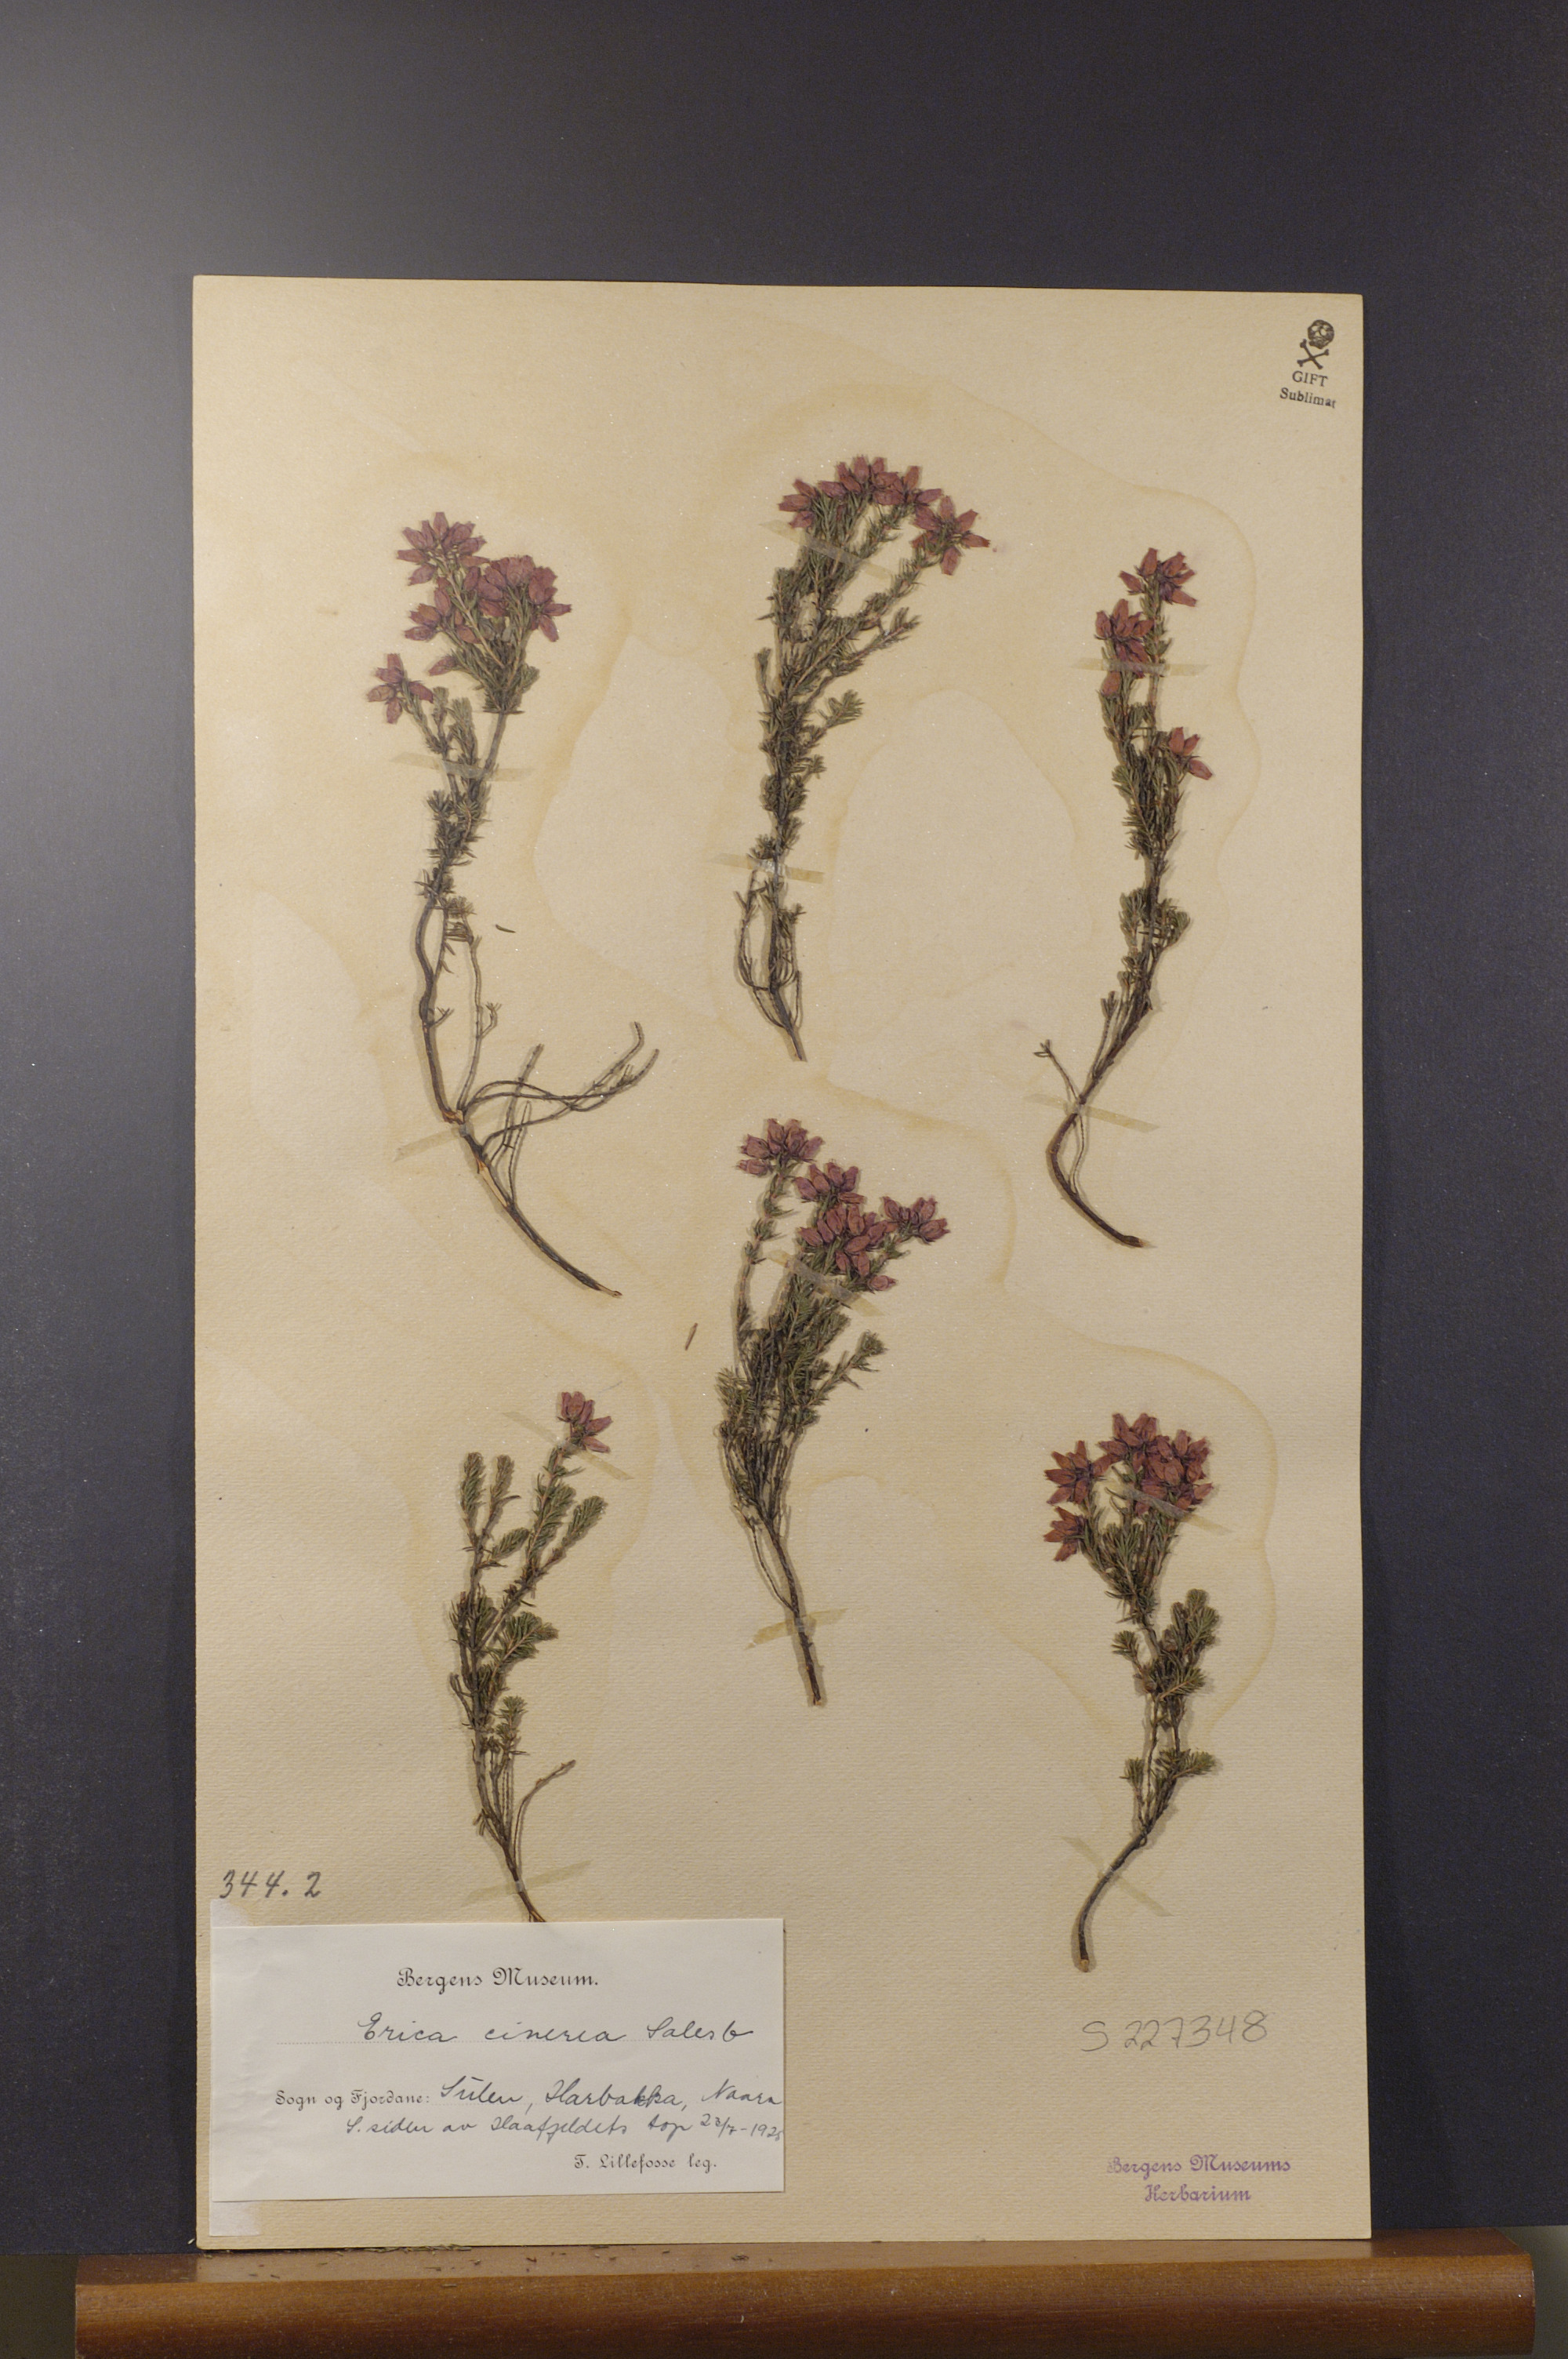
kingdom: Plantae
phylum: Tracheophyta
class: Magnoliopsida
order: Ericales
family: Ericaceae
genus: Erica
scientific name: Erica cinerea
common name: Bell heather
